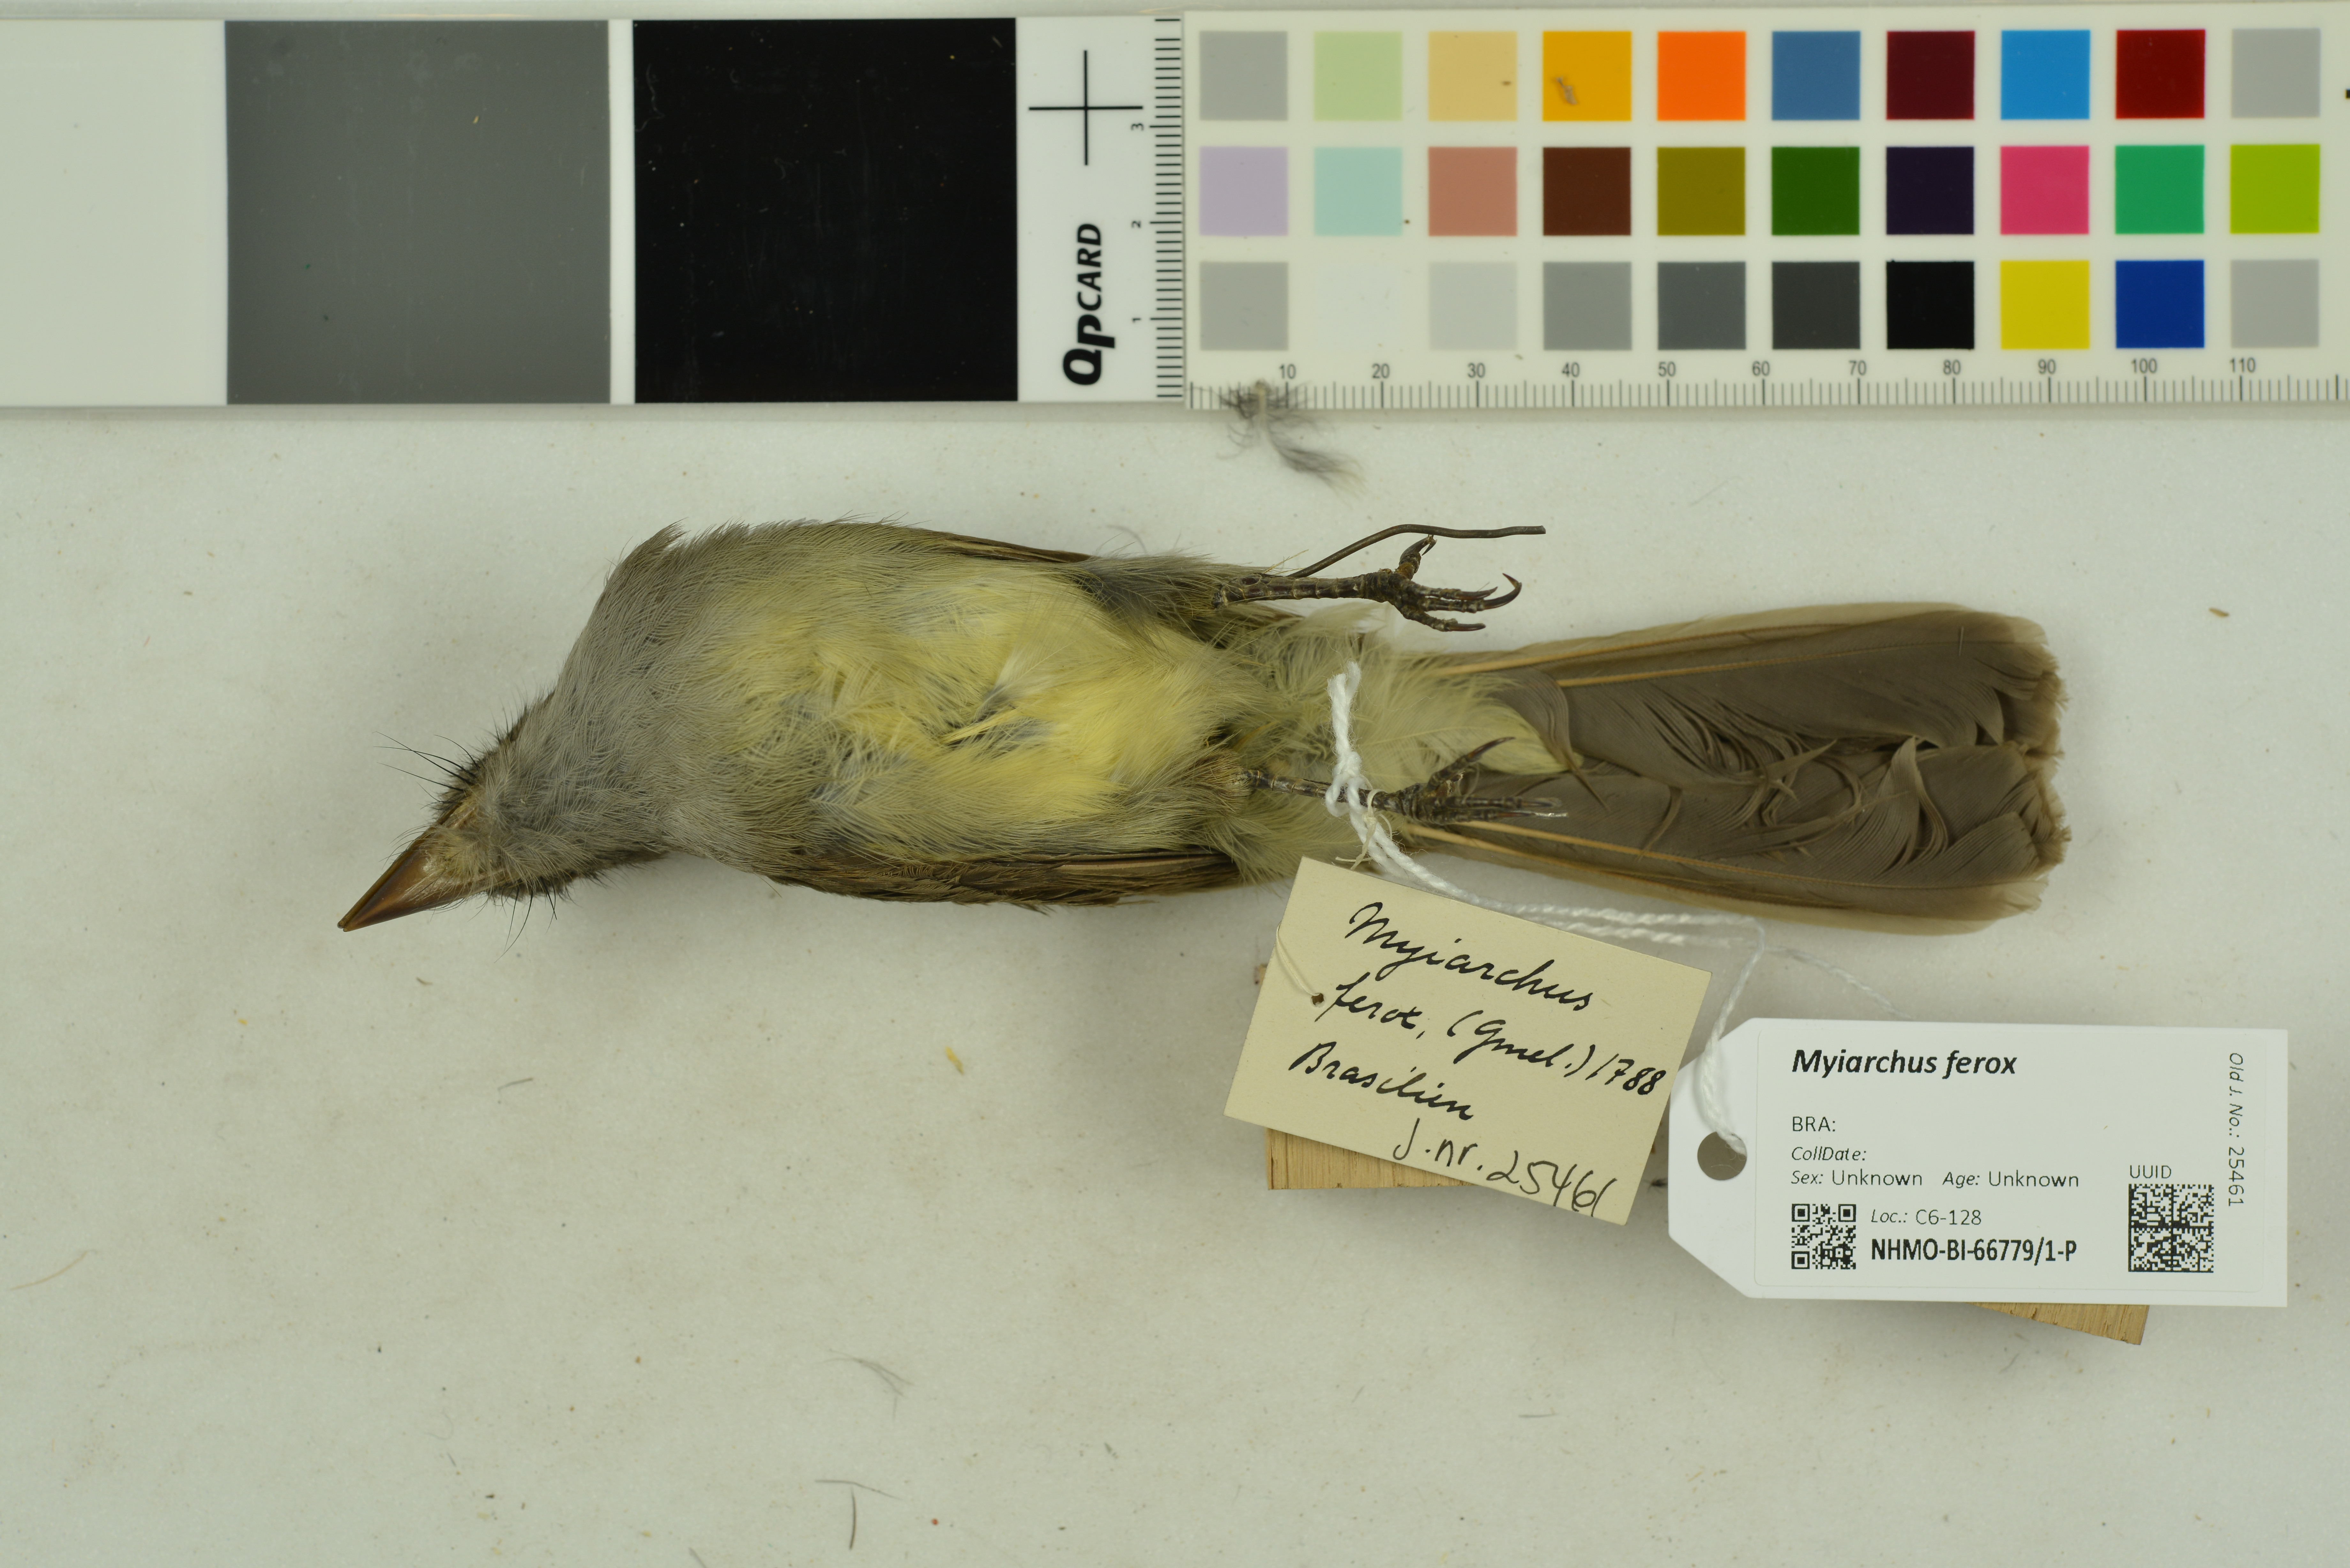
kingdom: Animalia
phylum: Chordata
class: Aves
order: Passeriformes
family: Tyrannidae
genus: Myiarchus
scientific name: Myiarchus ferox
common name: Short-crested flycatcher
